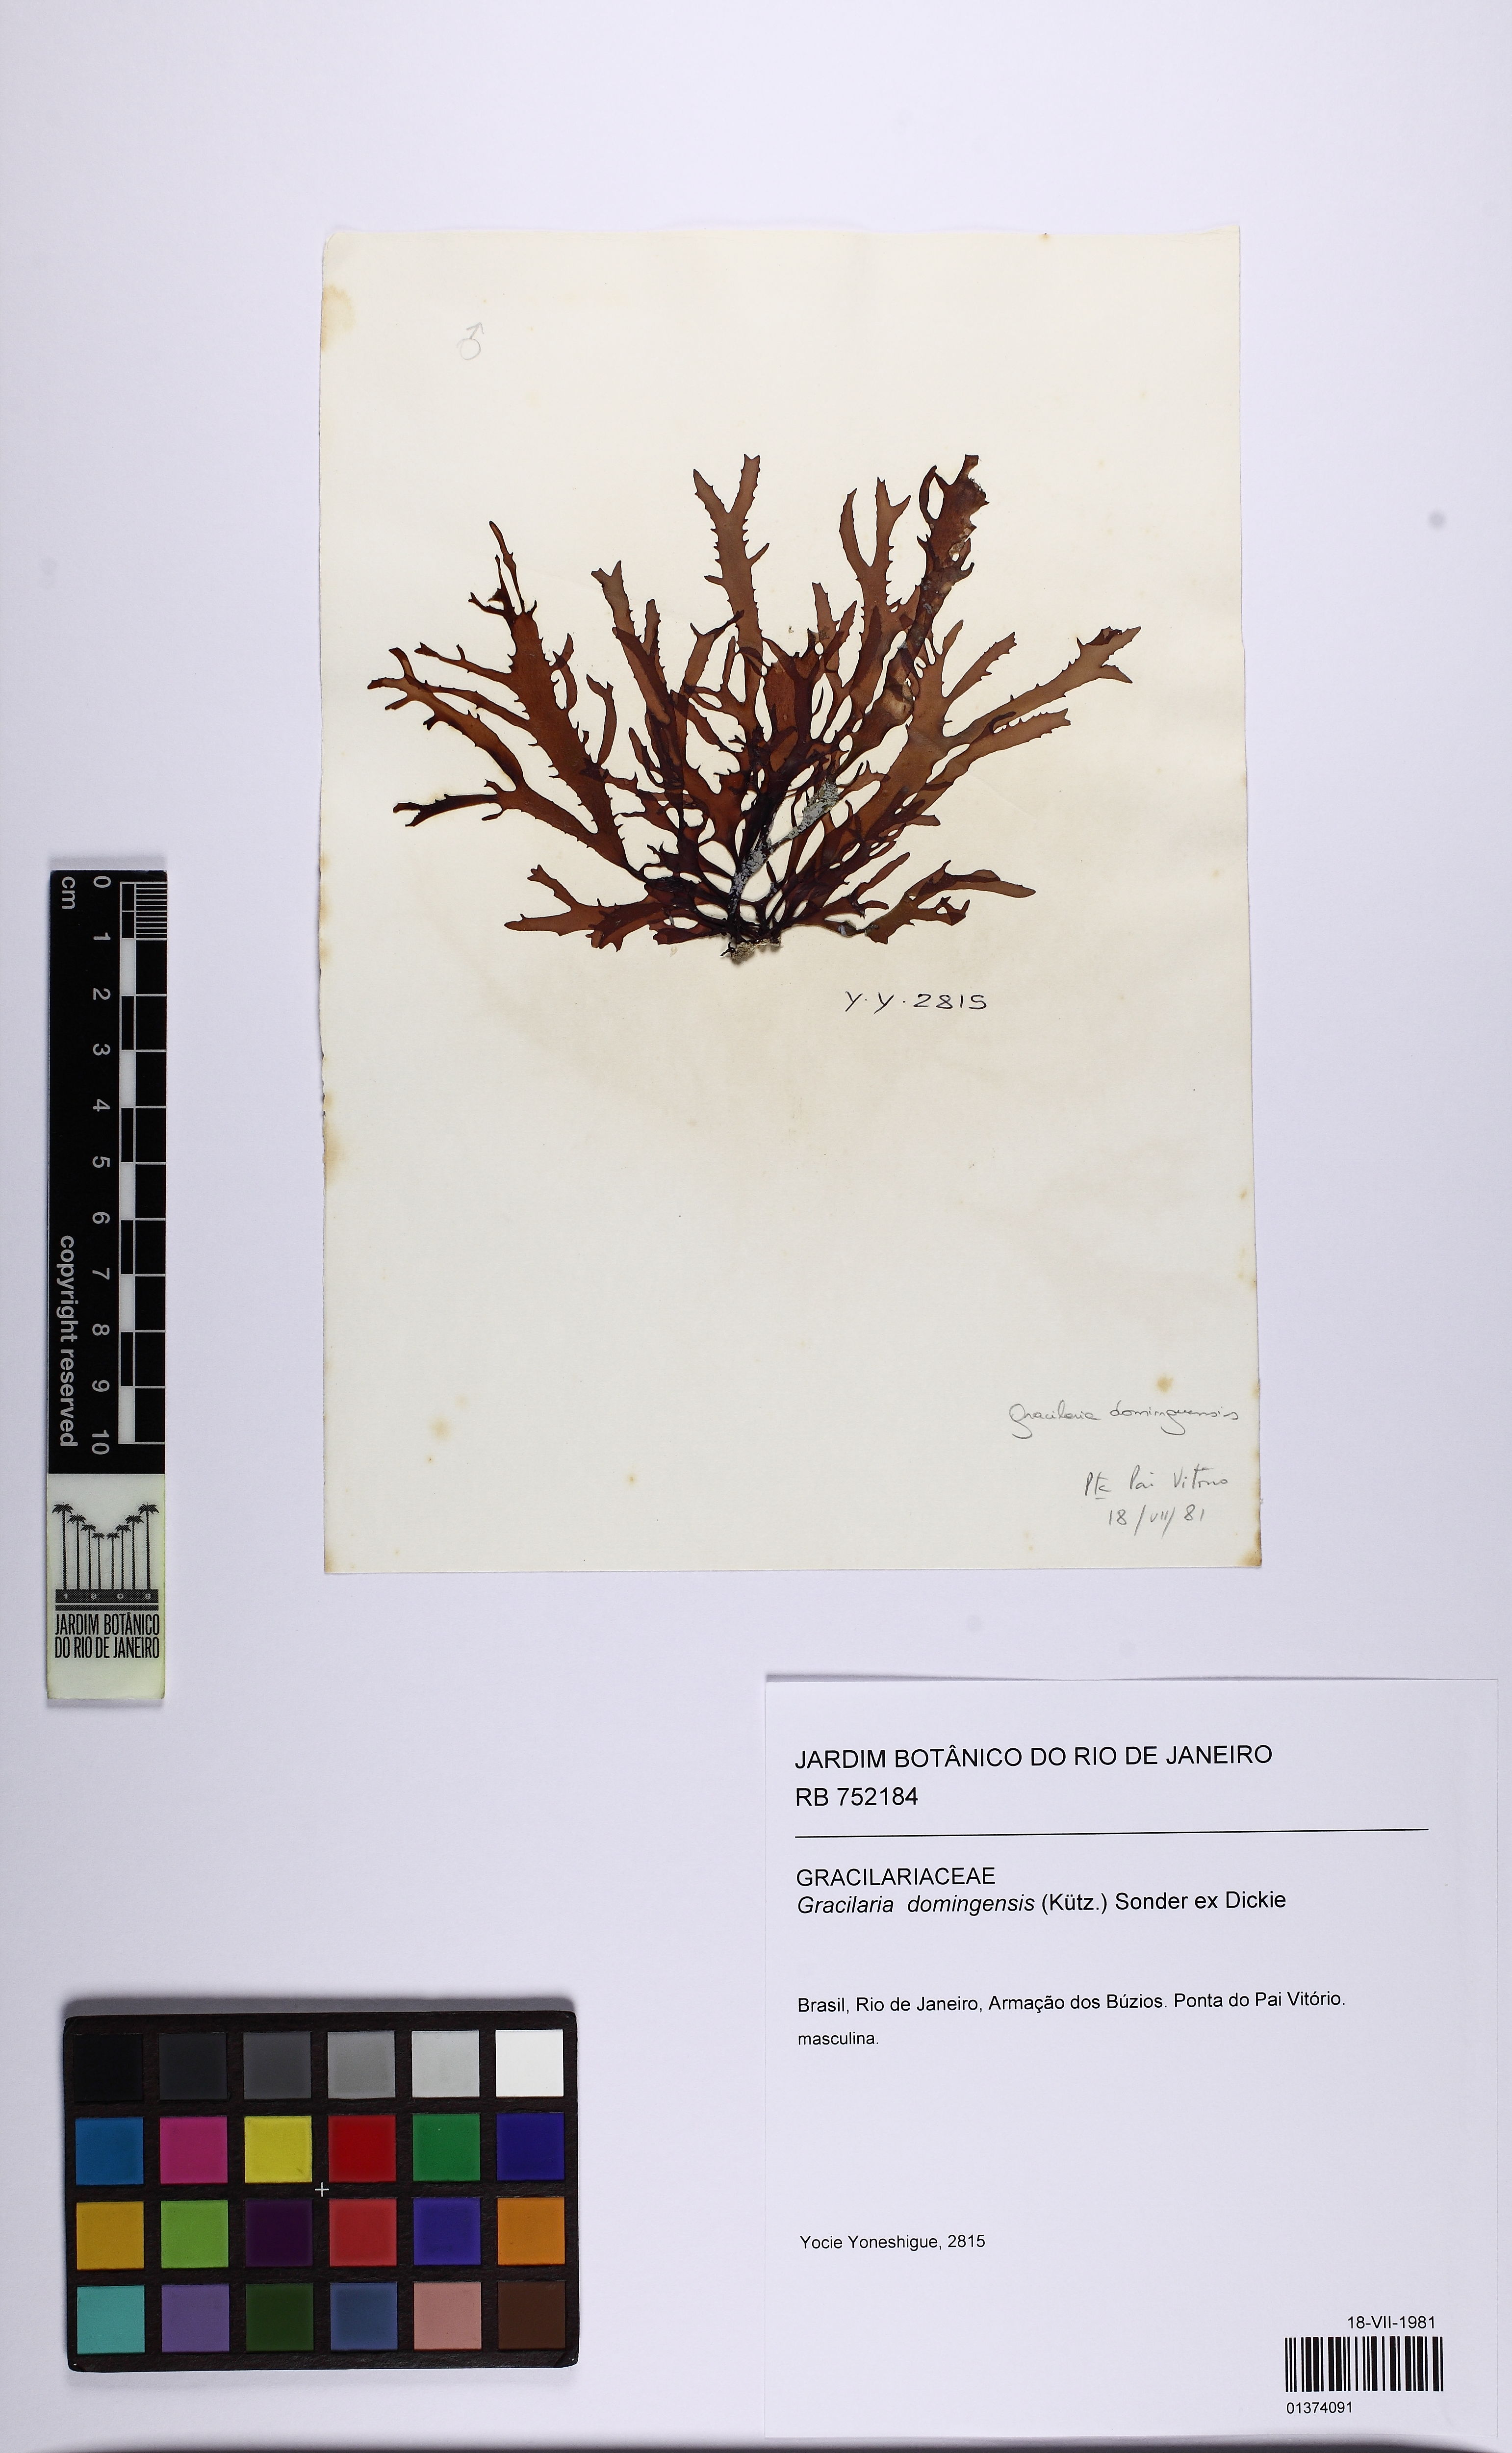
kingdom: Plantae
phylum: Rhodophyta
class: Florideophyceae
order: Gracilariales
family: Gracilariaceae
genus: Gracilaria
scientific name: Gracilaria domingensis
